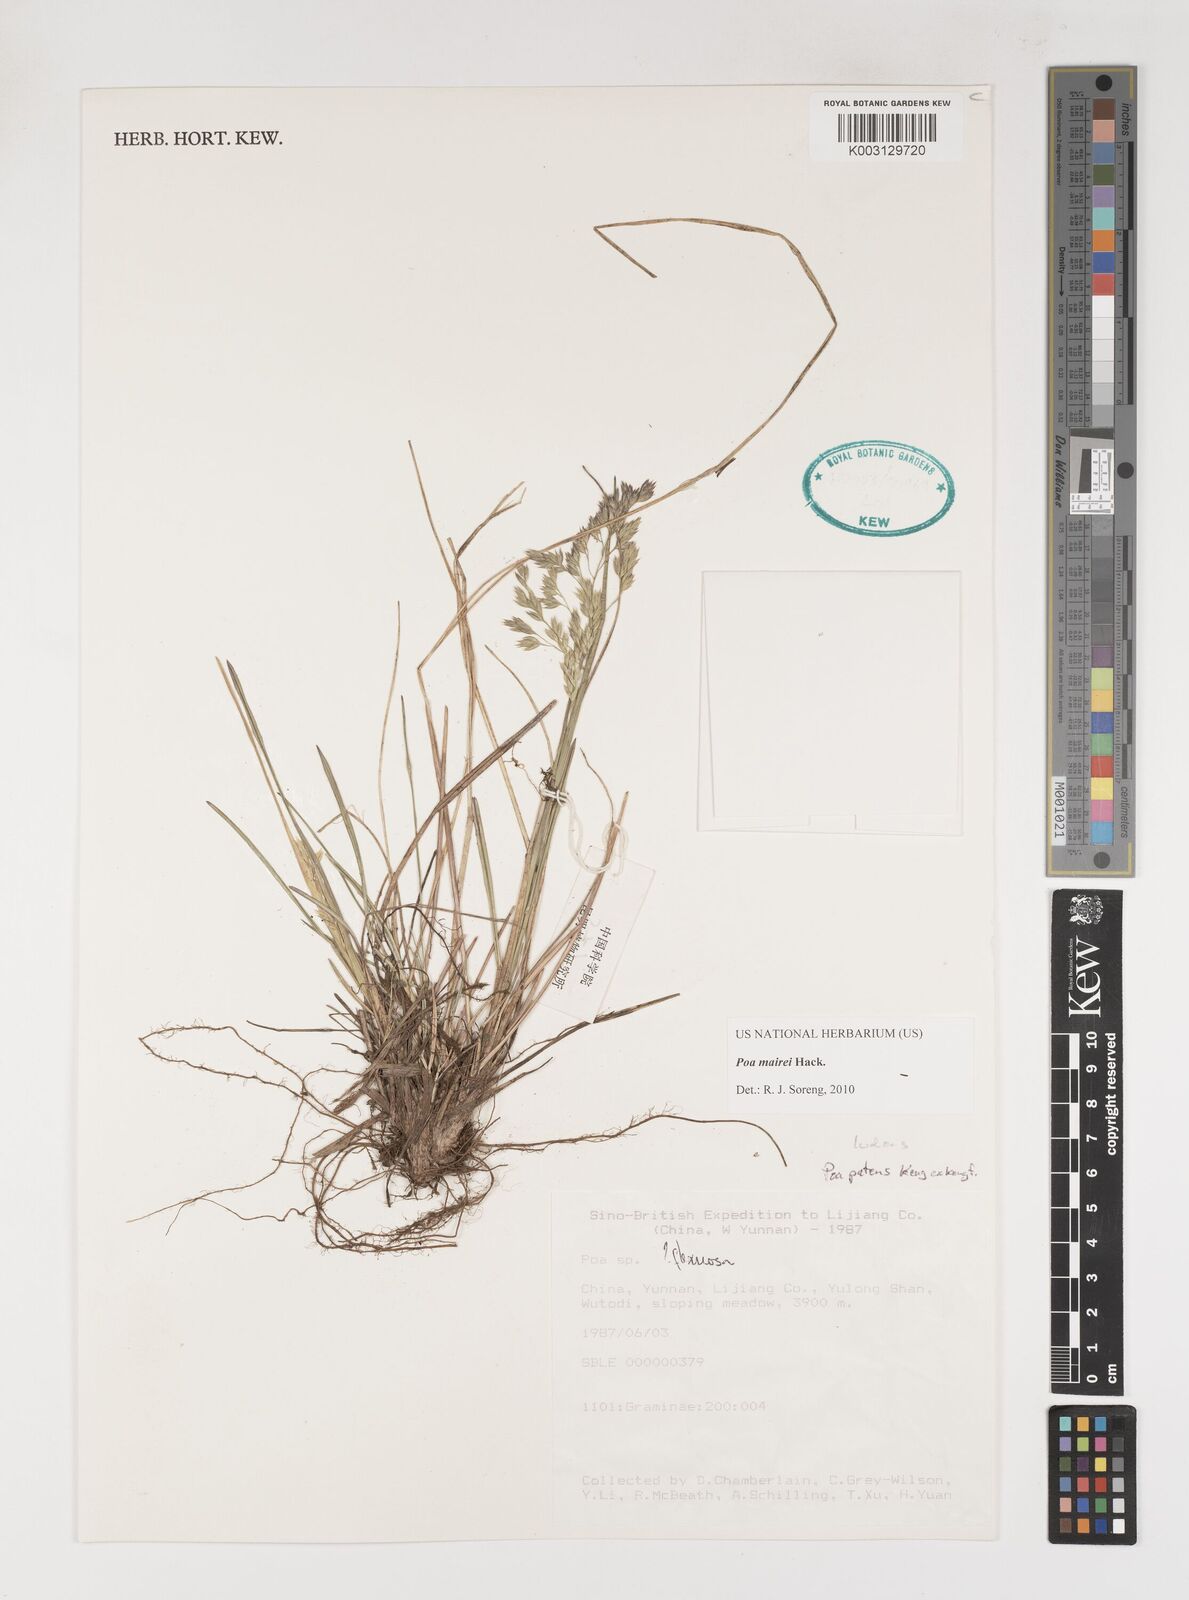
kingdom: Plantae
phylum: Tracheophyta
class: Liliopsida
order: Poales
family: Poaceae
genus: Poa
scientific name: Poa mairei
